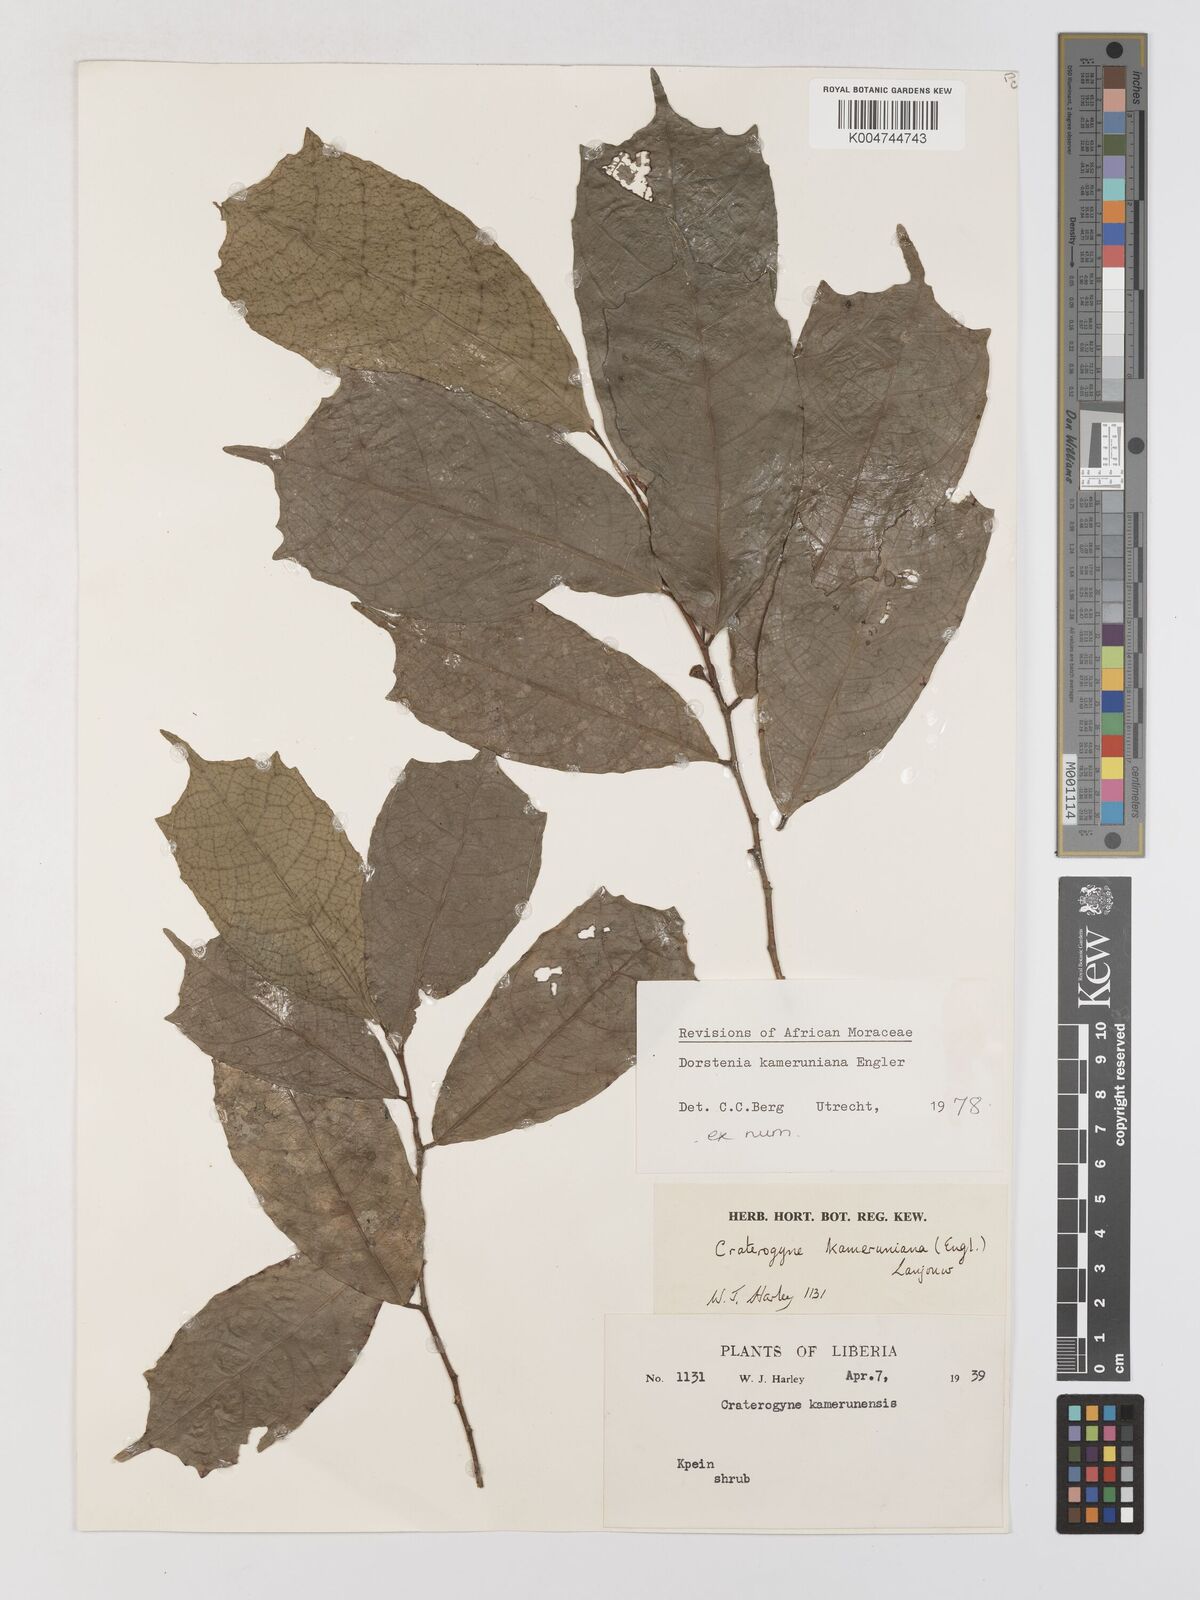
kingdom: Plantae
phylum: Tracheophyta
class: Magnoliopsida
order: Rosales
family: Moraceae
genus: Dorstenia
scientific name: Dorstenia kameruniana
